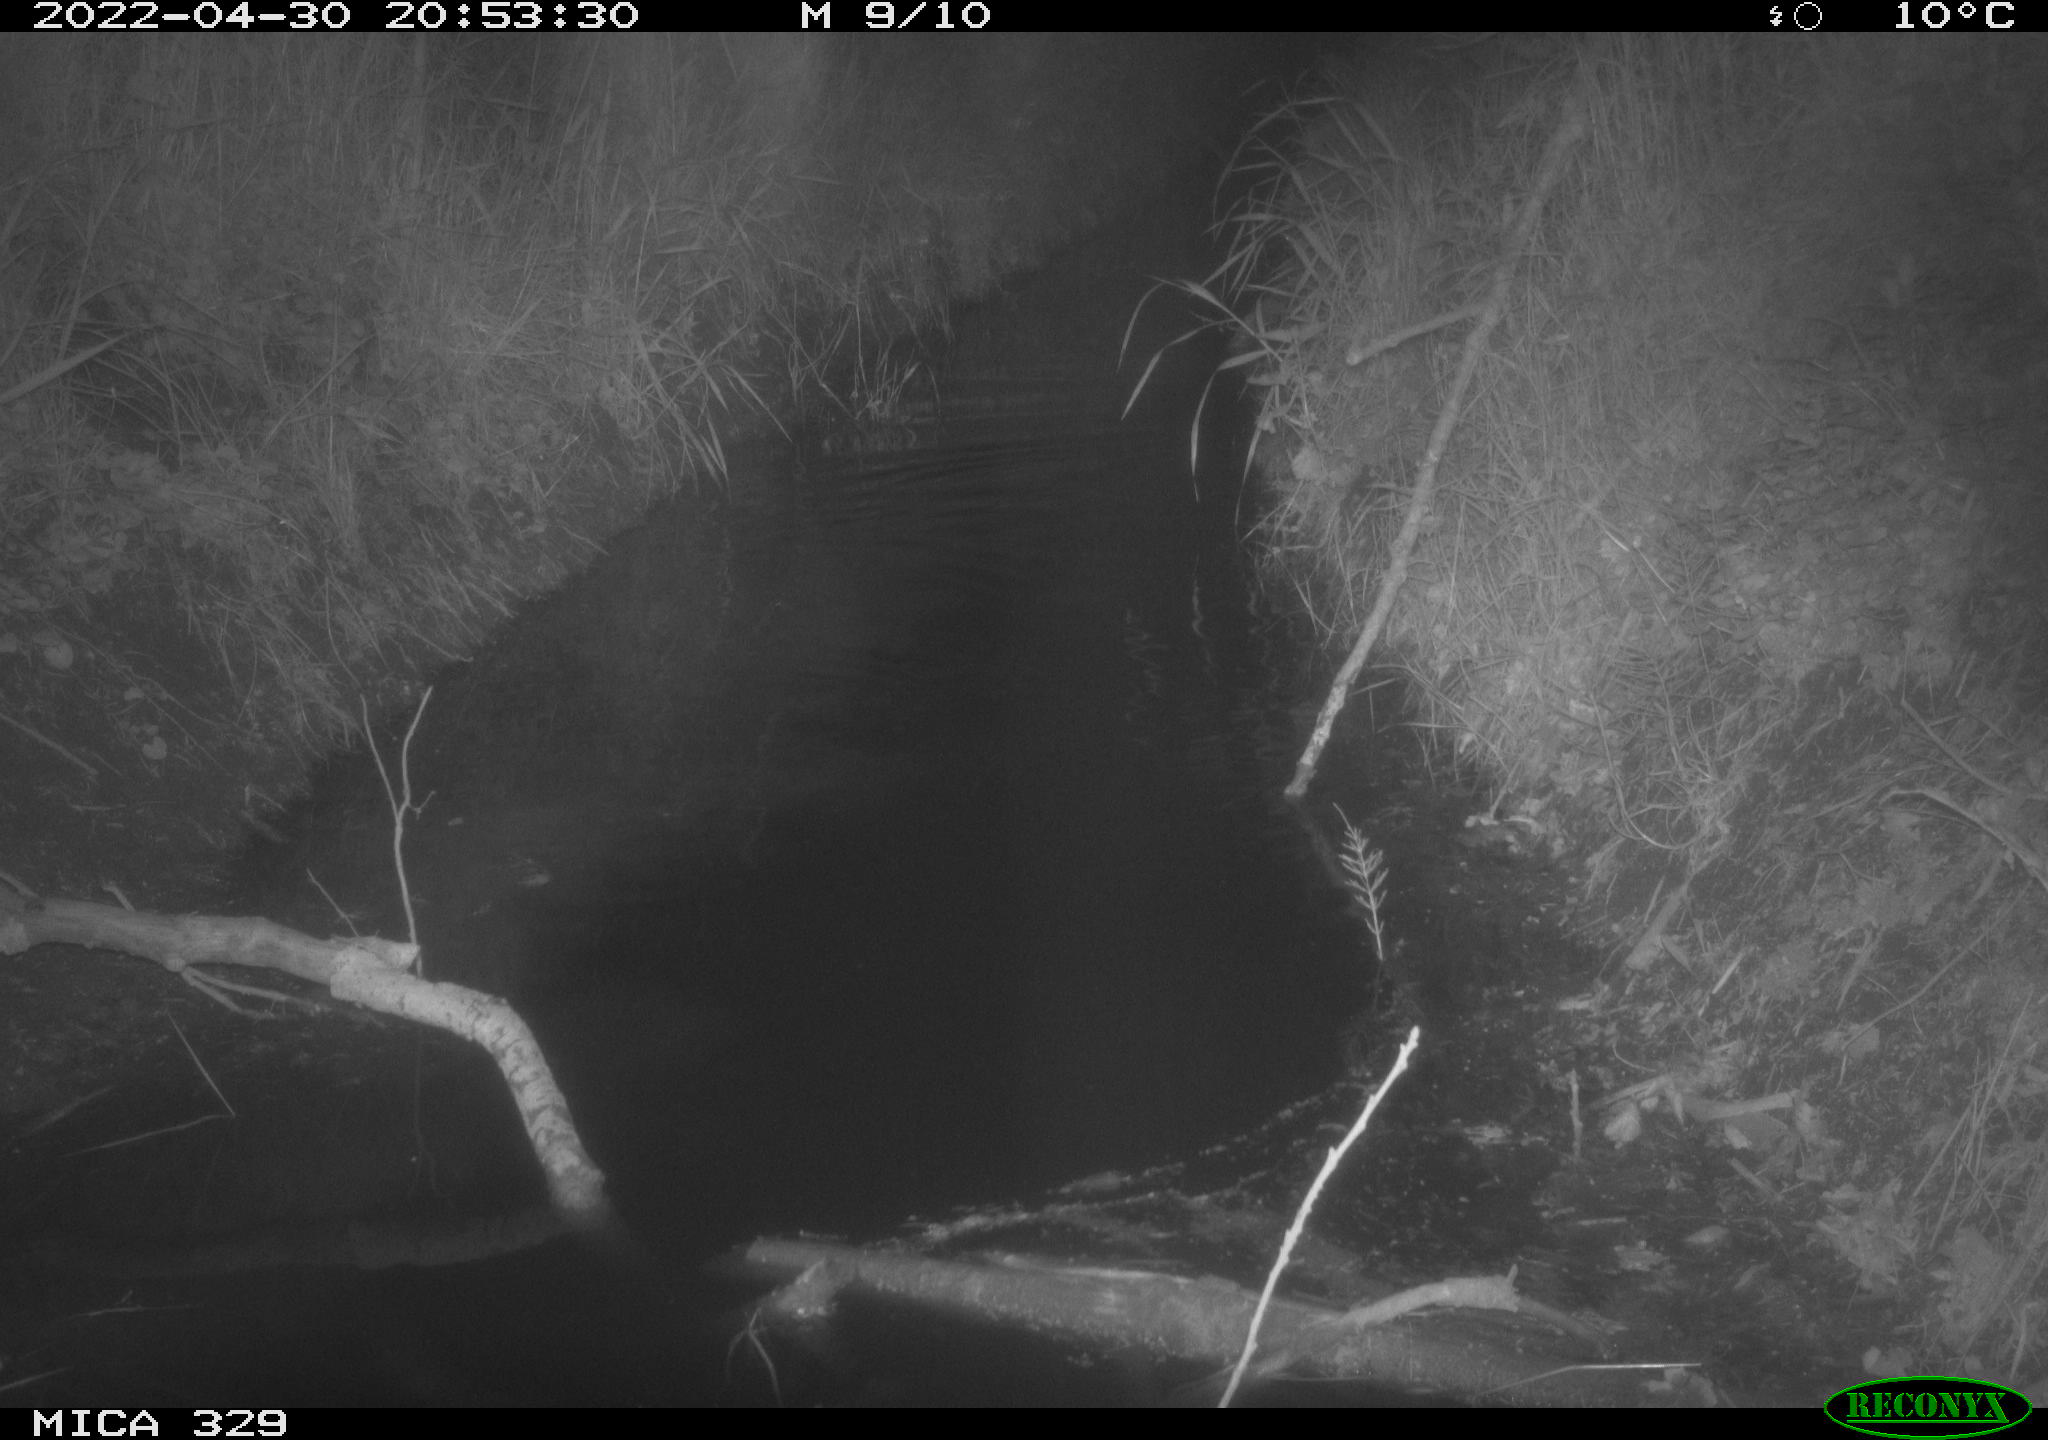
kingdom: Animalia
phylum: Chordata
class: Mammalia
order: Rodentia
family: Muridae
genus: Rattus
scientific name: Rattus norvegicus
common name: Brown rat
